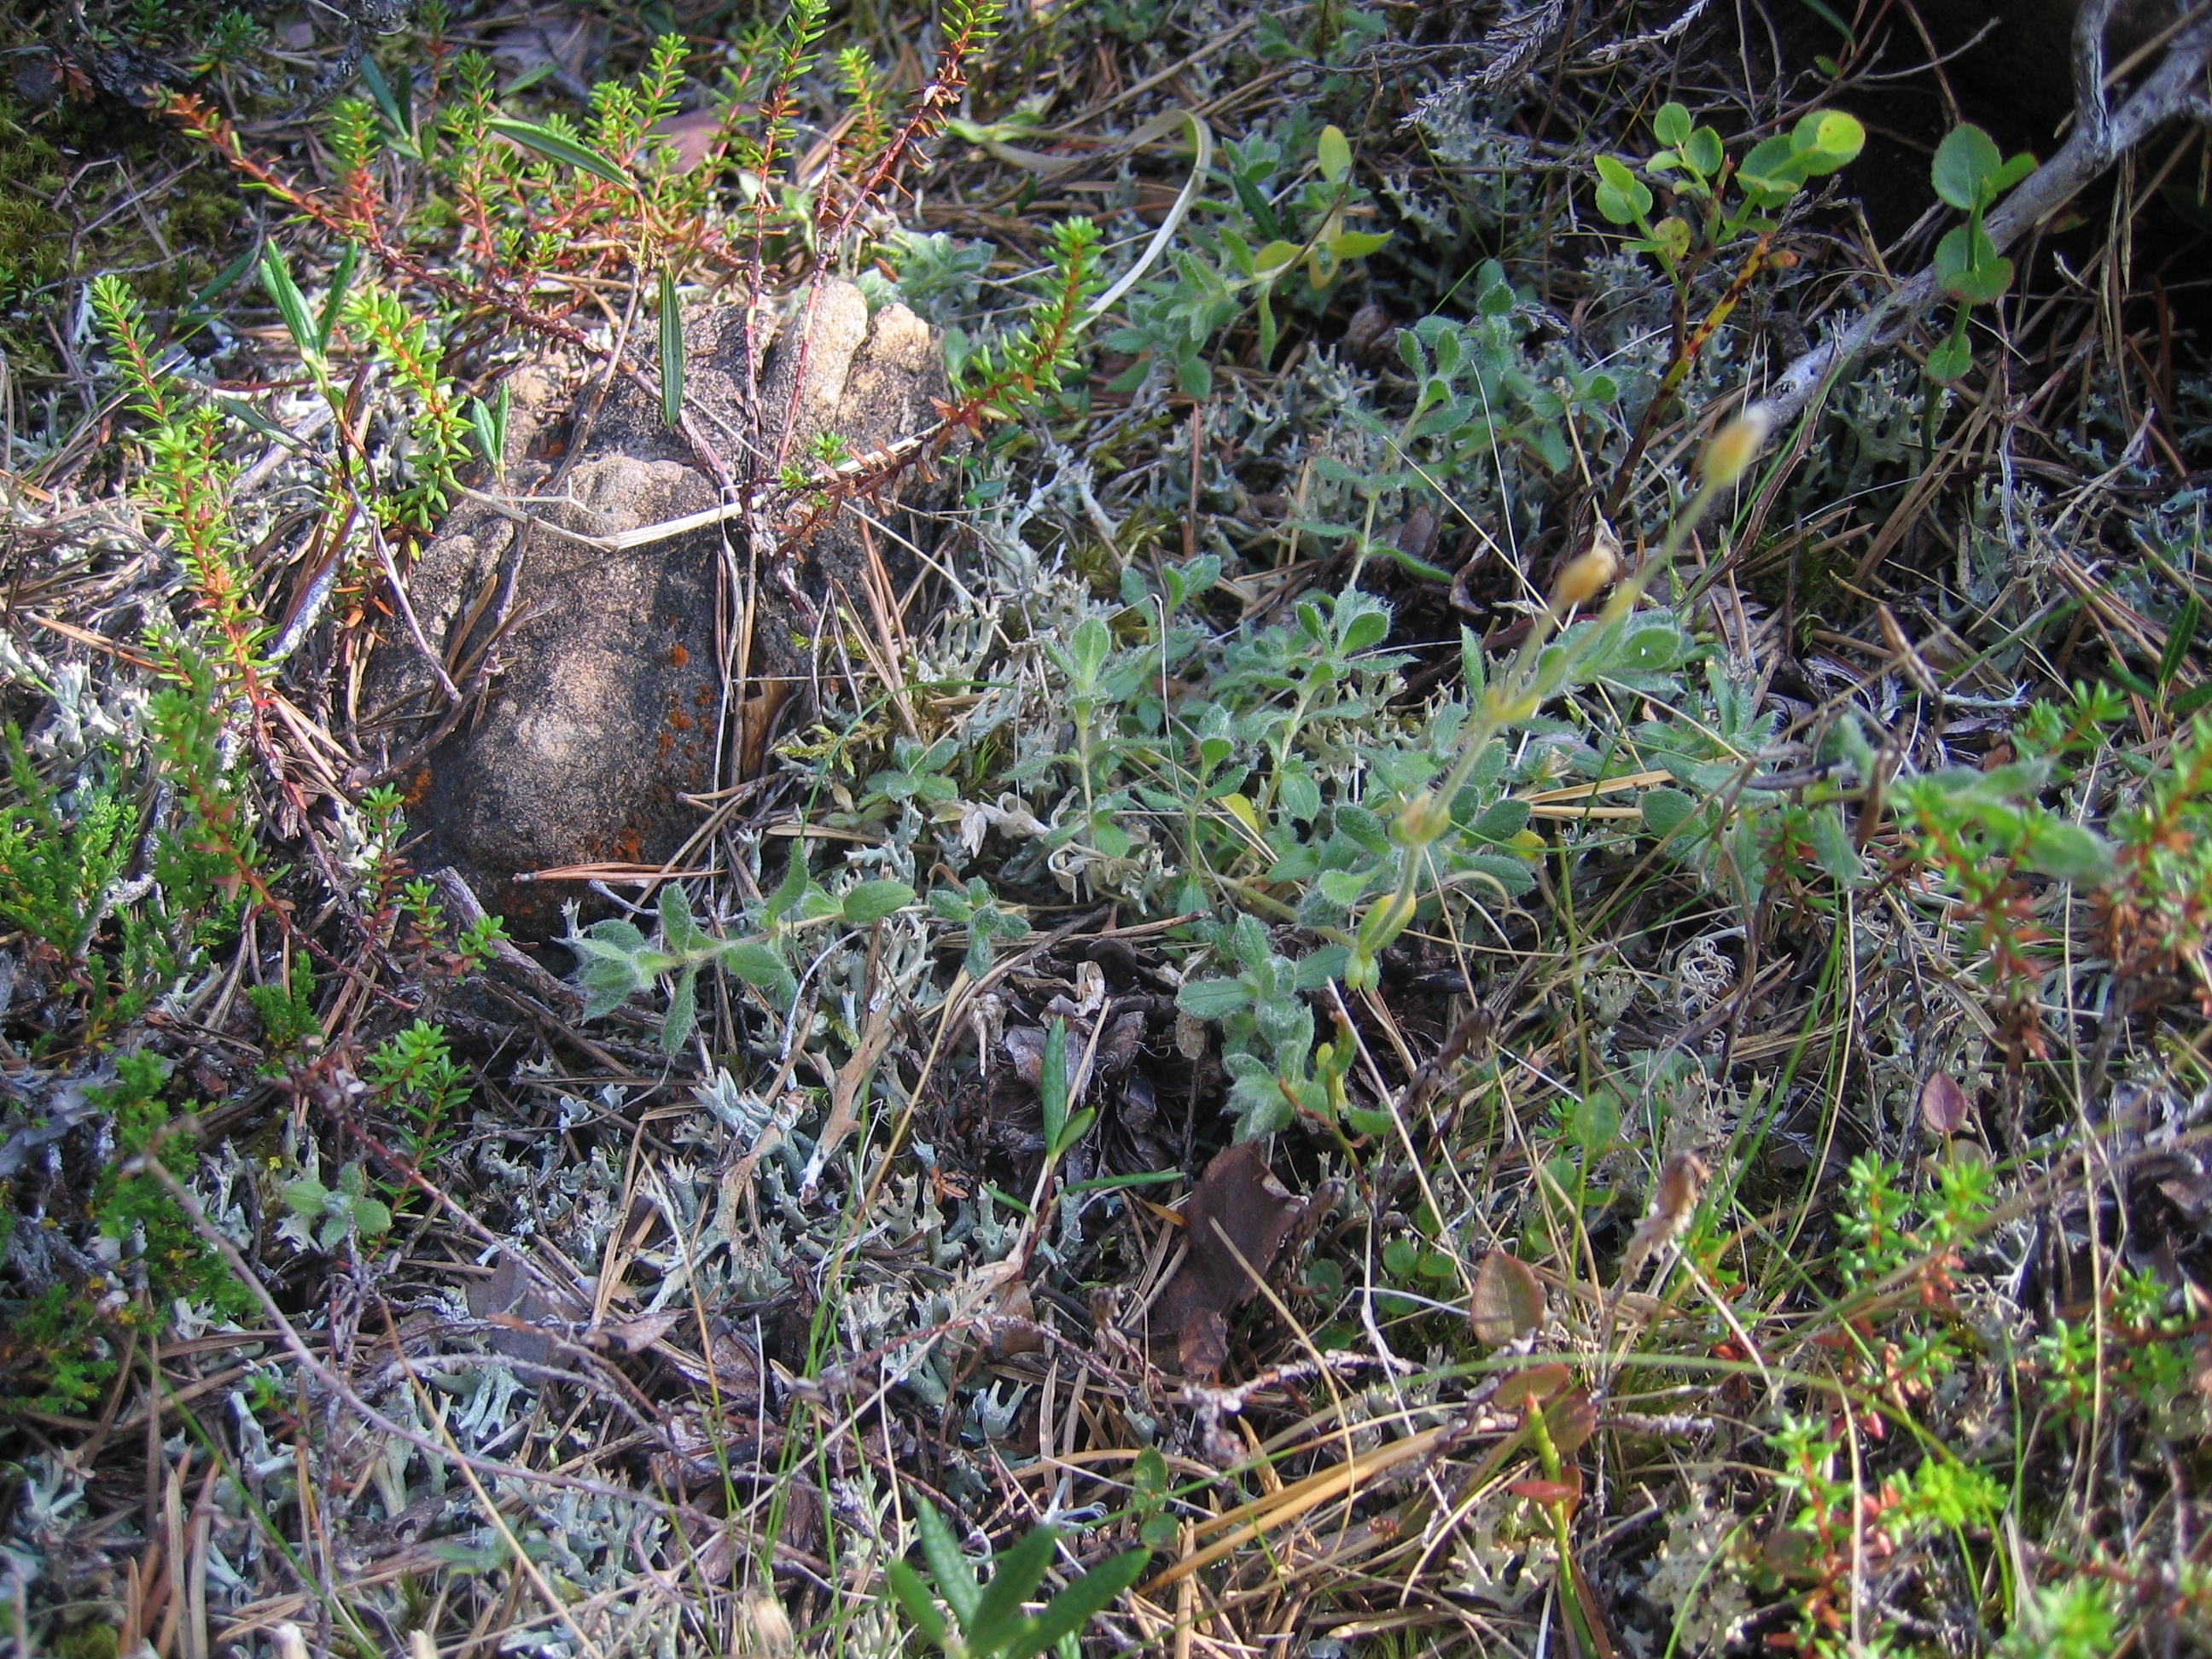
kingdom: Plantae
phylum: Tracheophyta
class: Magnoliopsida
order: Caryophyllales
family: Caryophyllaceae
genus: Cerastium
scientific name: Cerastium alpinum
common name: Alpine mouse-ear
